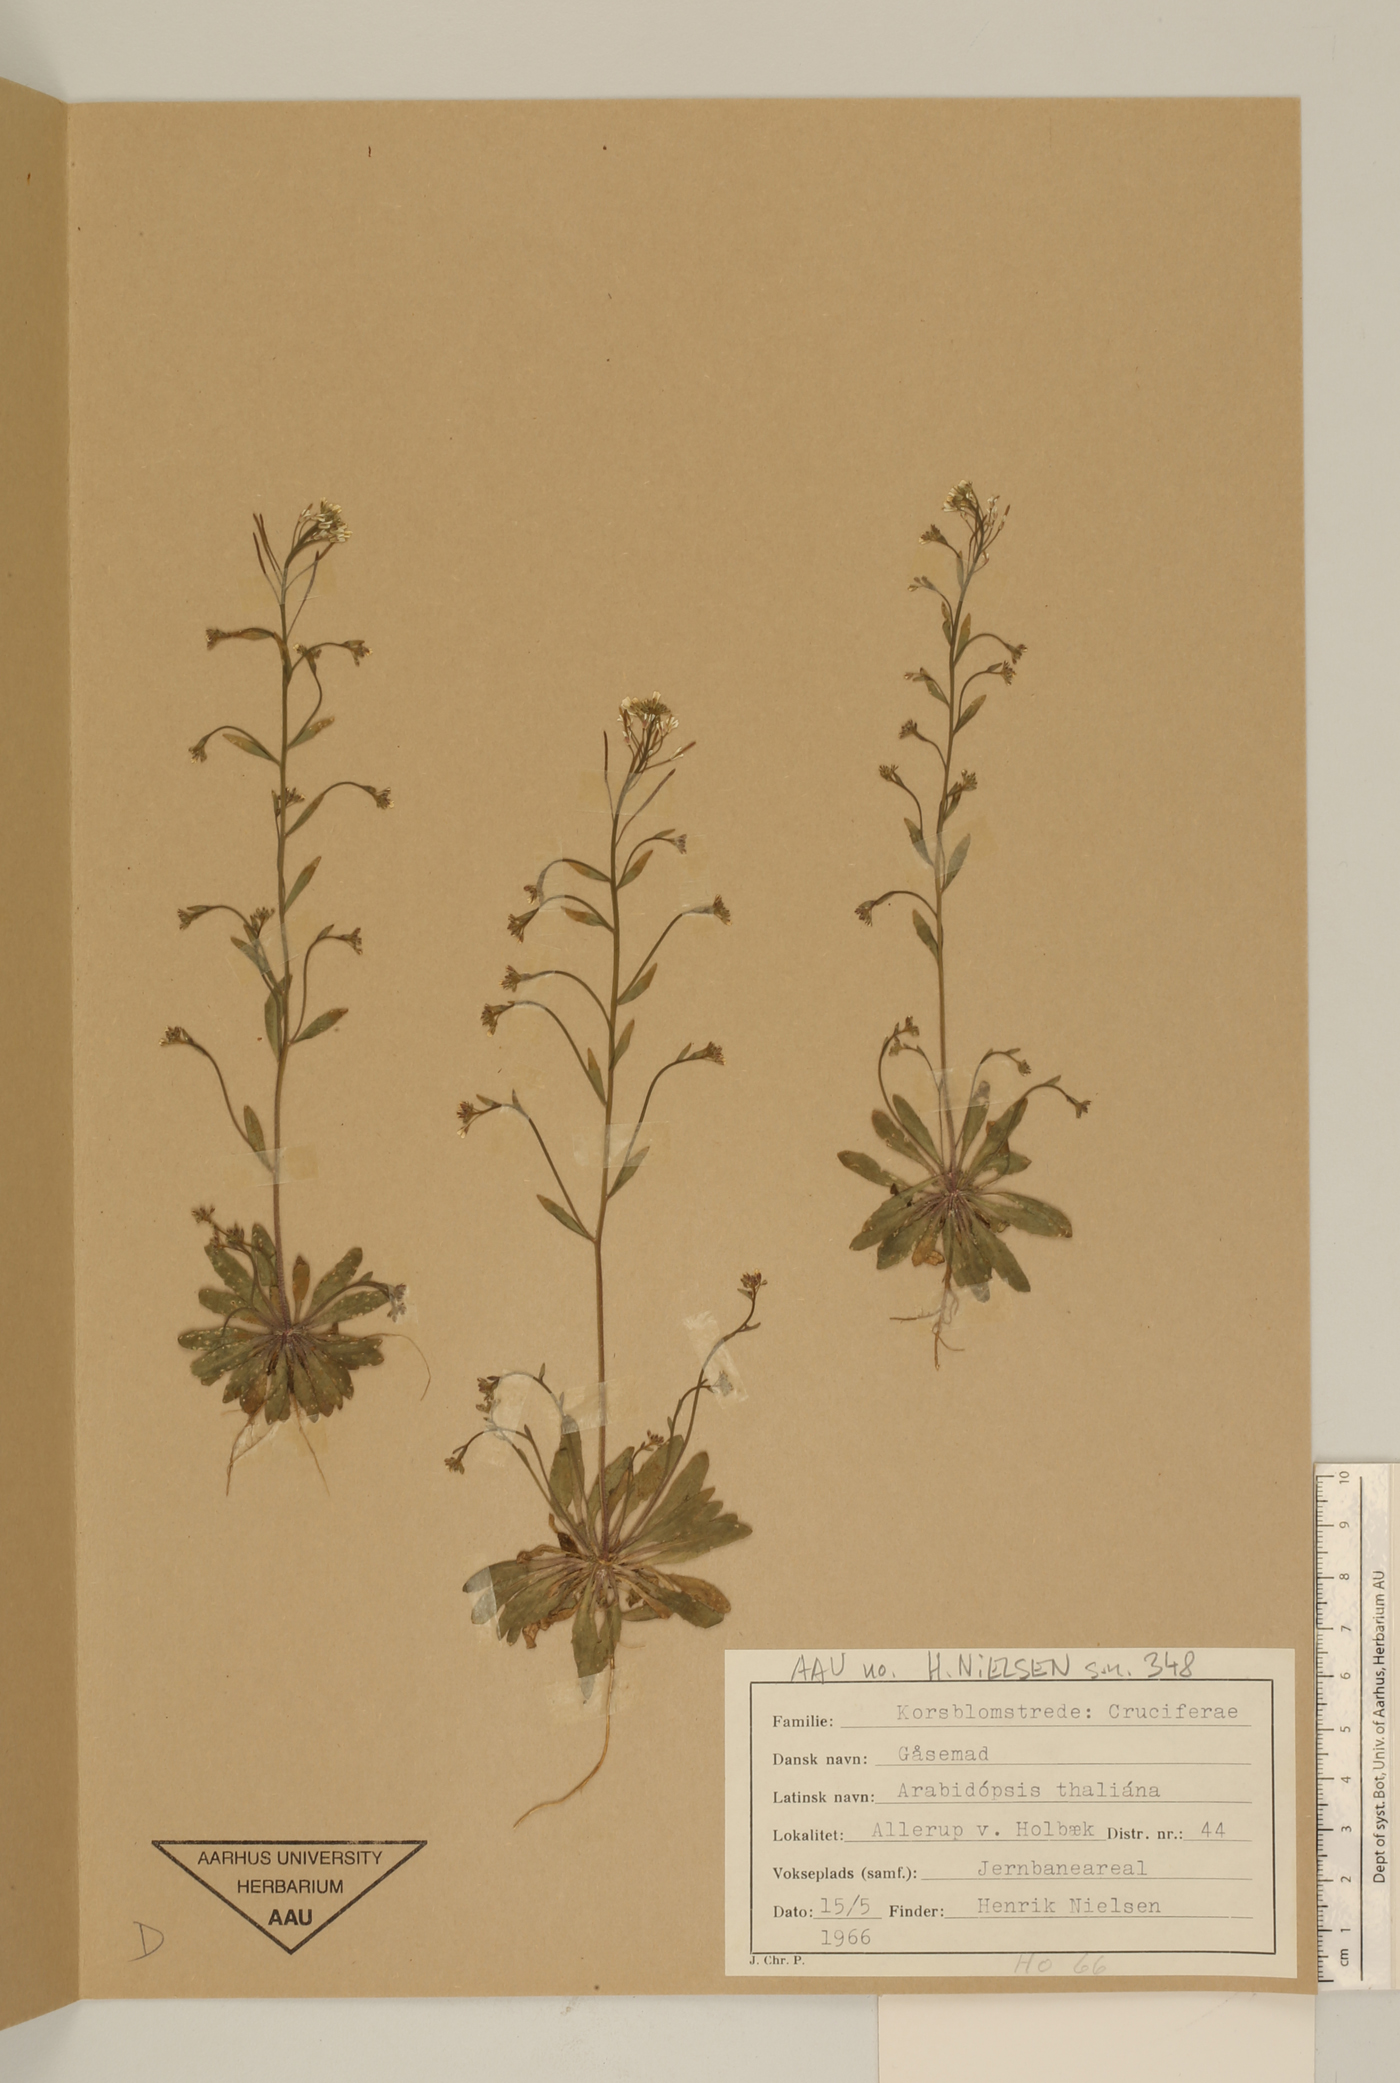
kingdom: Plantae
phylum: Tracheophyta
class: Magnoliopsida
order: Brassicales
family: Brassicaceae
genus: Arabidopsis
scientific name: Arabidopsis thaliana
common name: Thale cress
